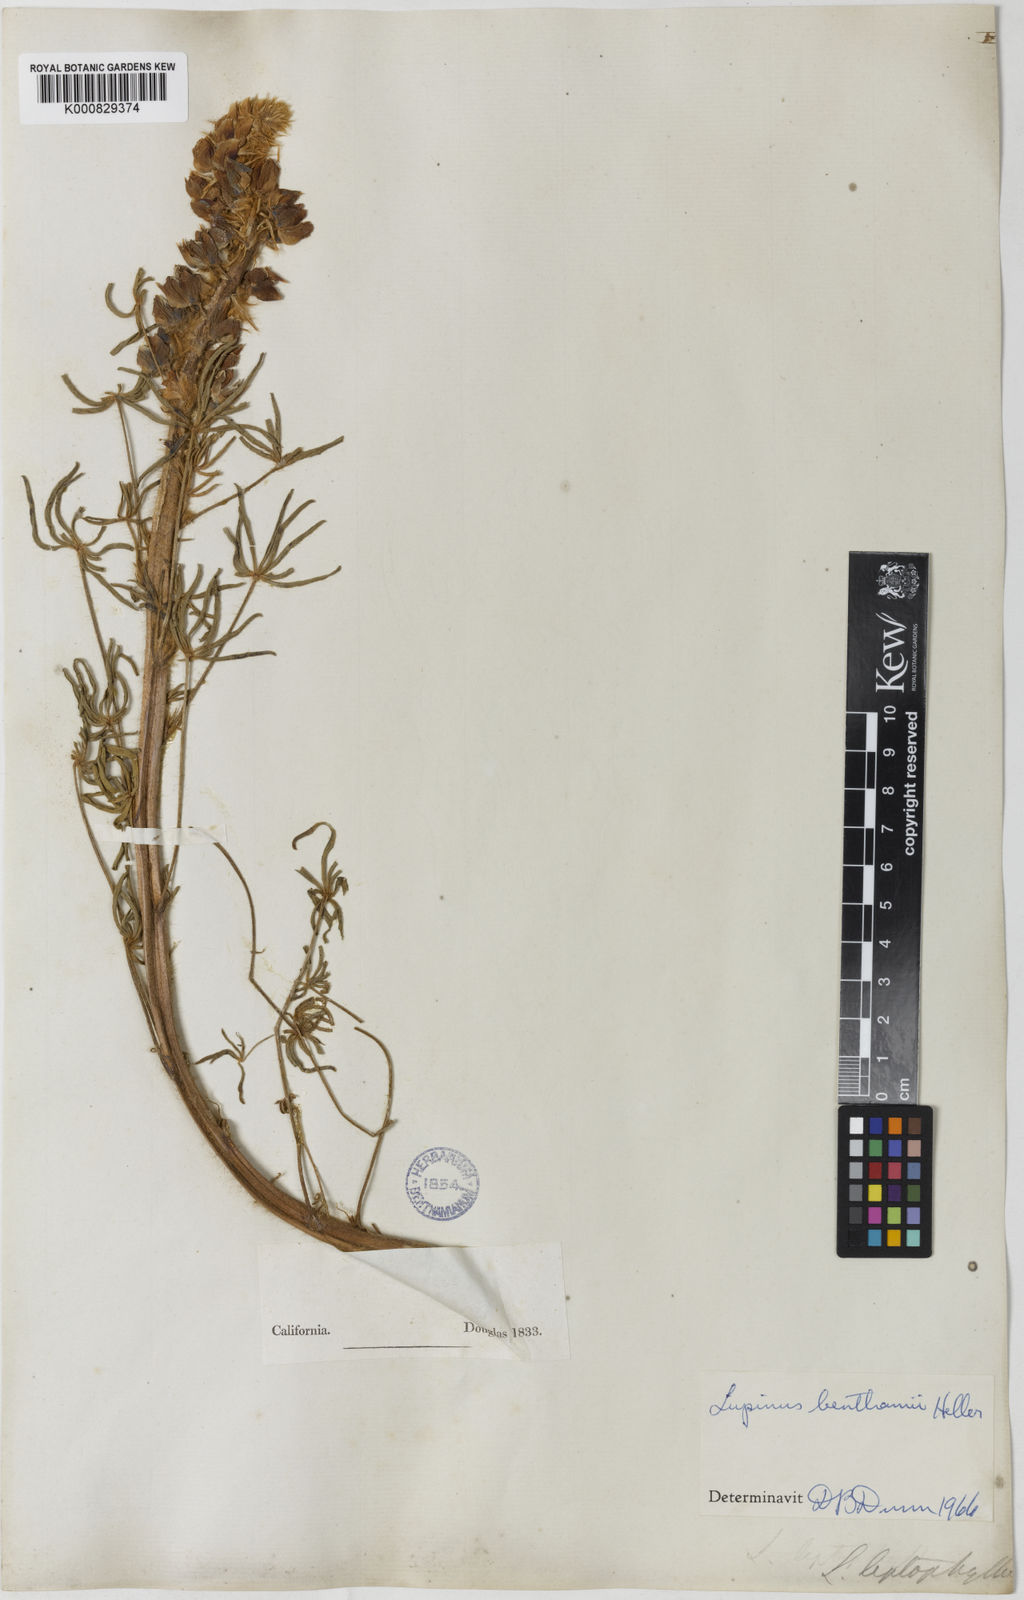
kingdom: Plantae
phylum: Tracheophyta
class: Magnoliopsida
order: Fabales
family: Fabaceae
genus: Lupinus
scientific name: Lupinus benthamii
